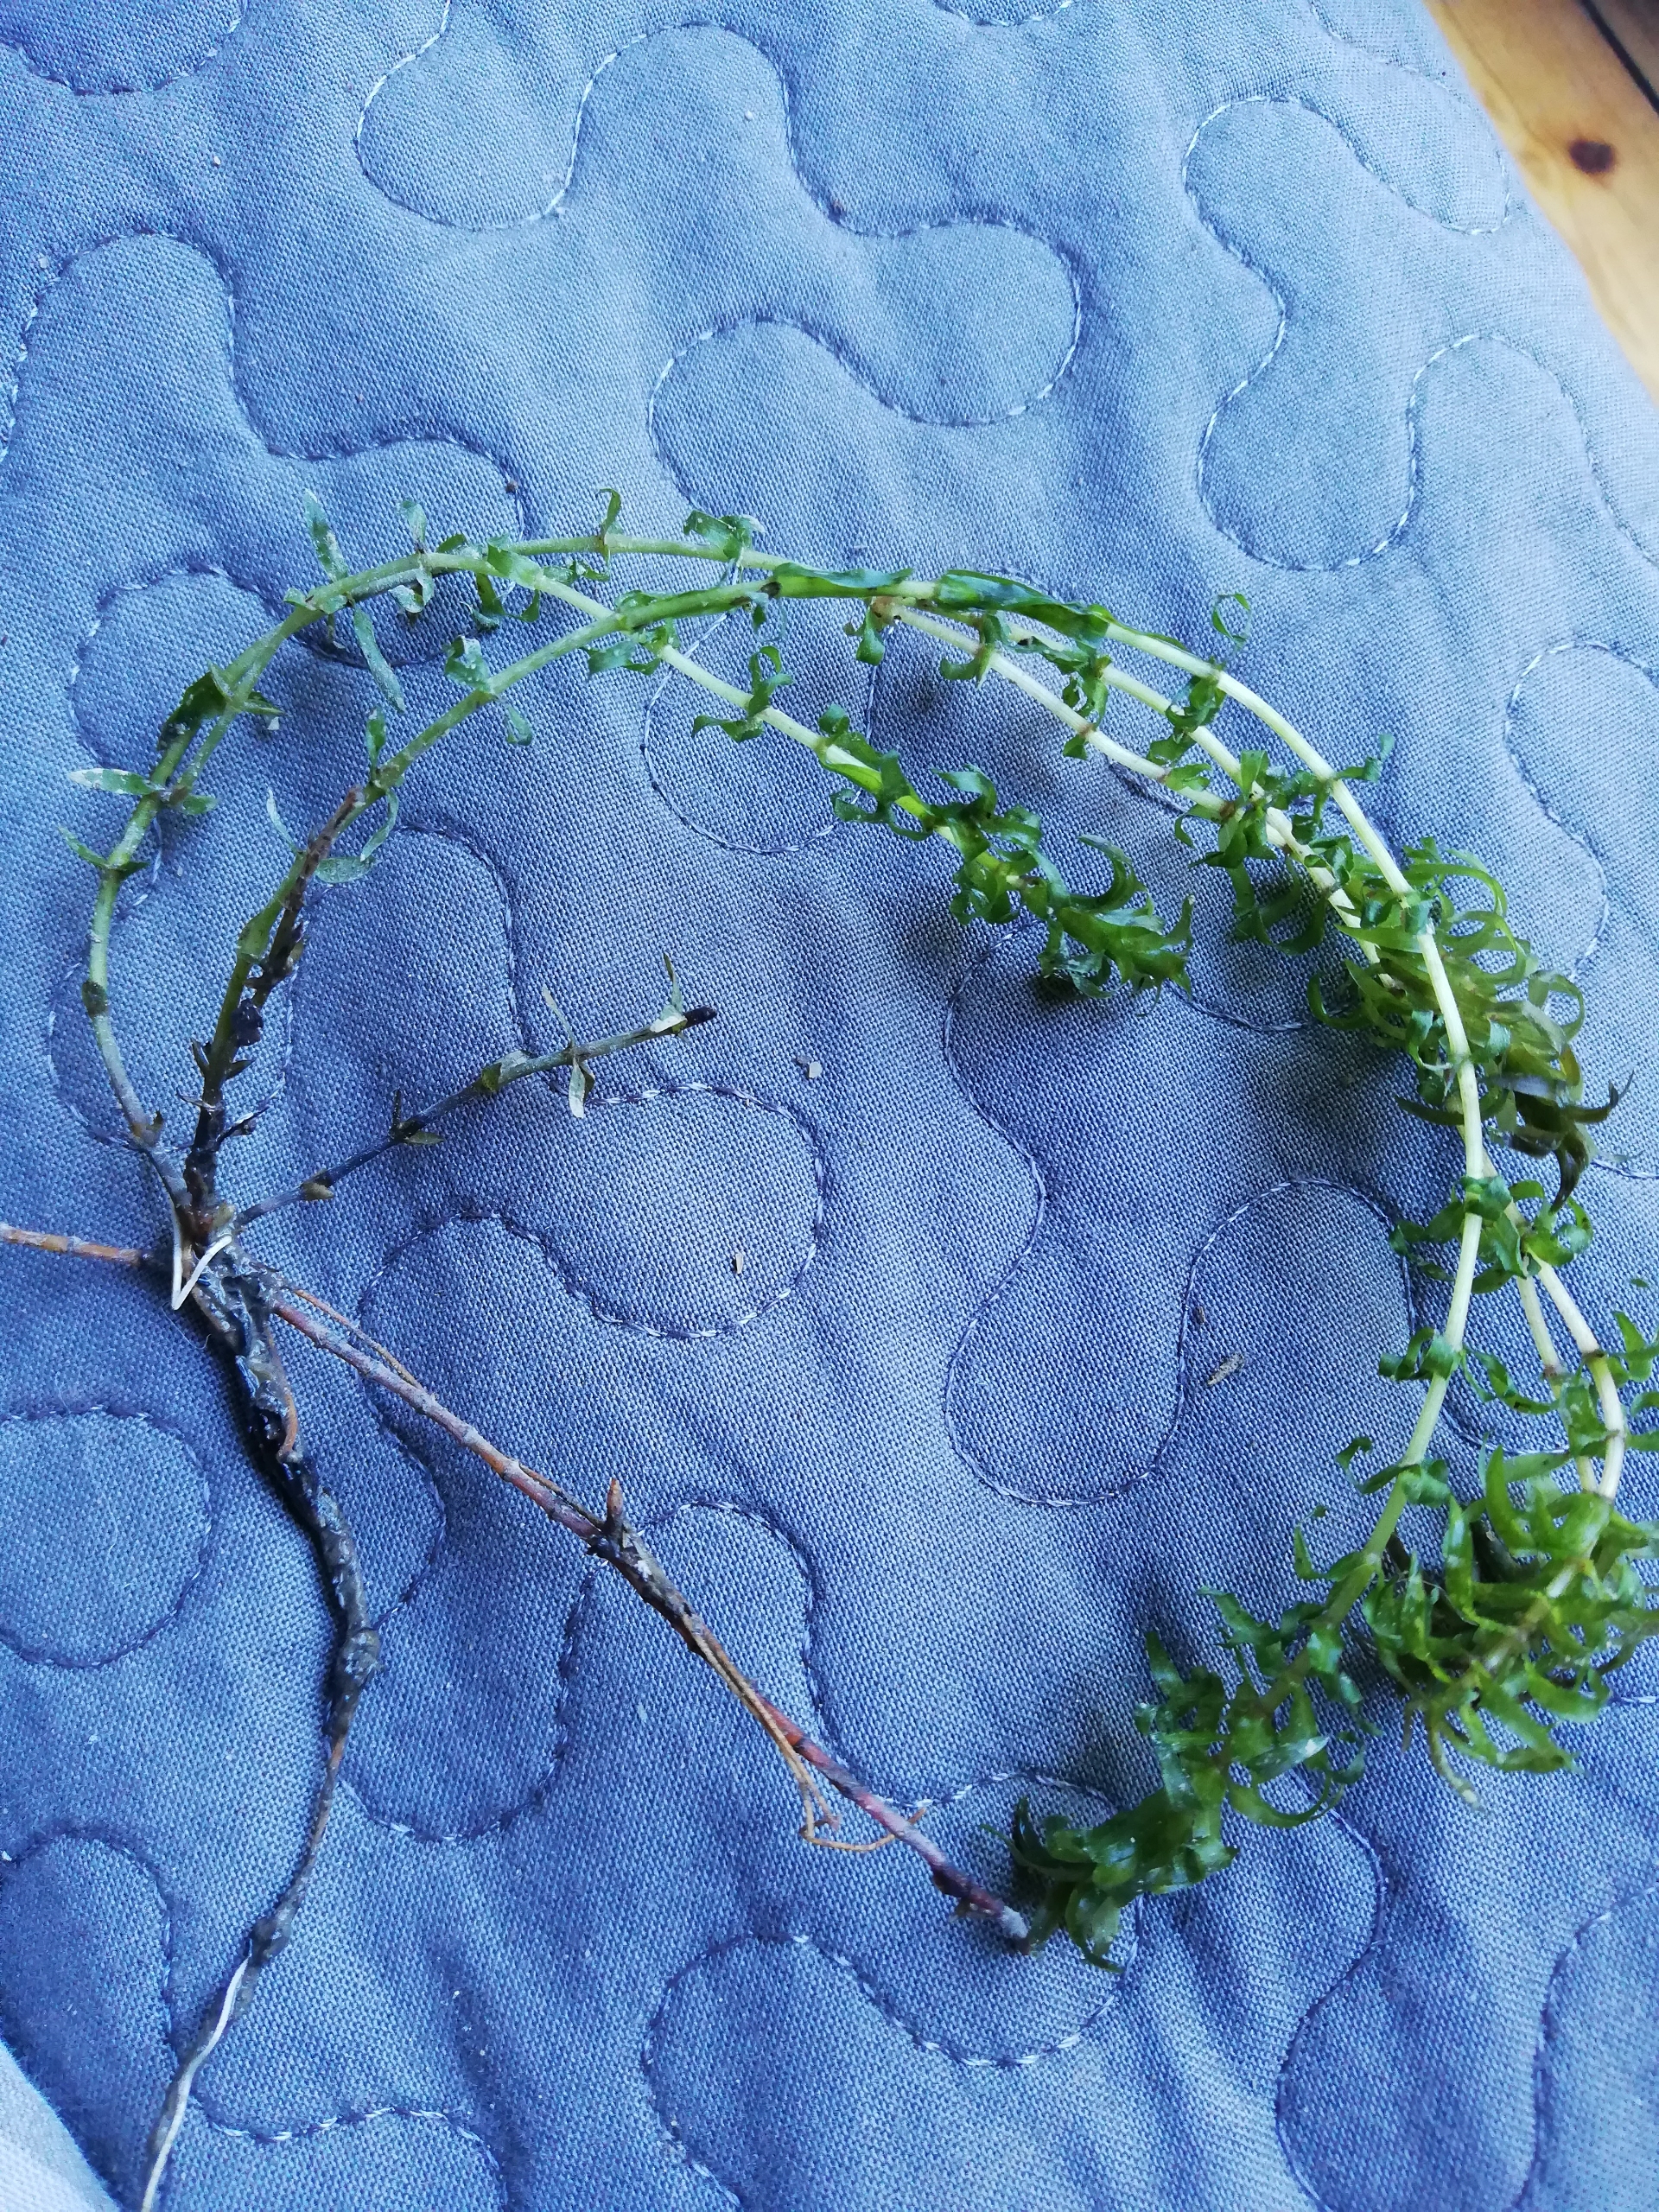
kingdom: Plantae
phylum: Tracheophyta
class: Liliopsida
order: Alismatales
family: Hydrocharitaceae
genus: Elodea
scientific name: Elodea nuttallii
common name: Smalbladet vandpest
